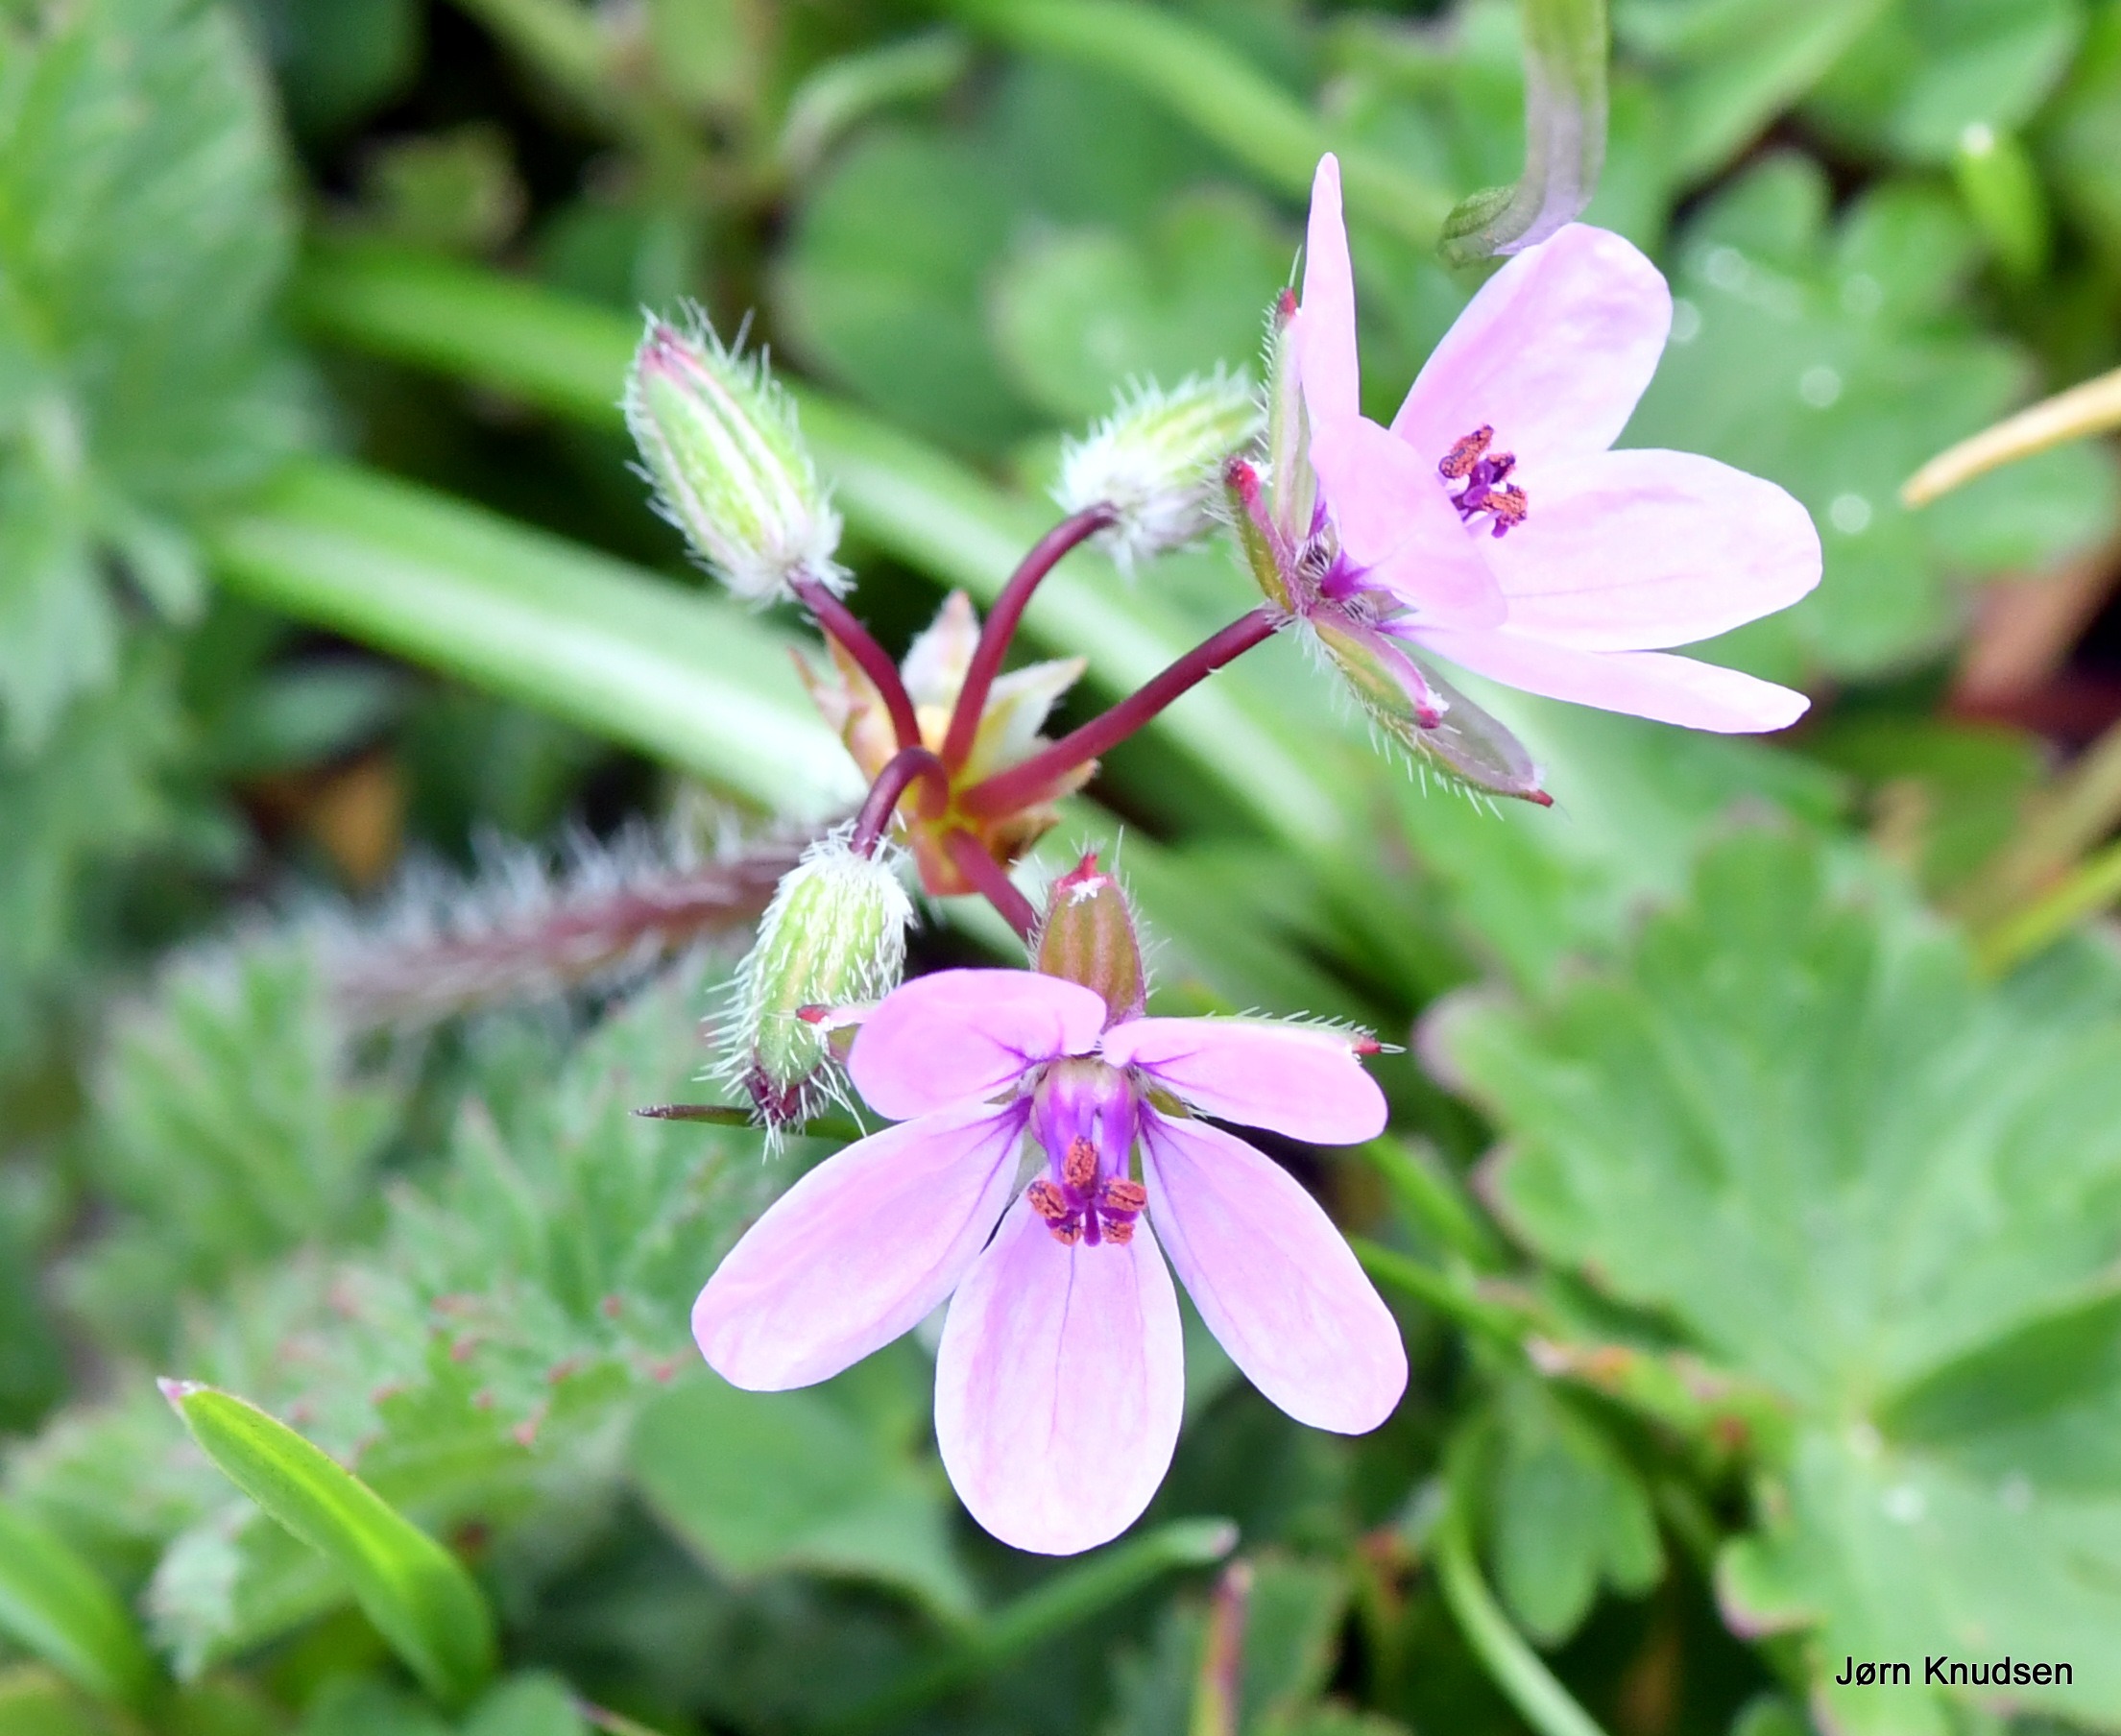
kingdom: Plantae
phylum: Tracheophyta
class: Magnoliopsida
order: Geraniales
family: Geraniaceae
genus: Erodium
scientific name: Erodium cicutarium
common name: Hejrenæb
